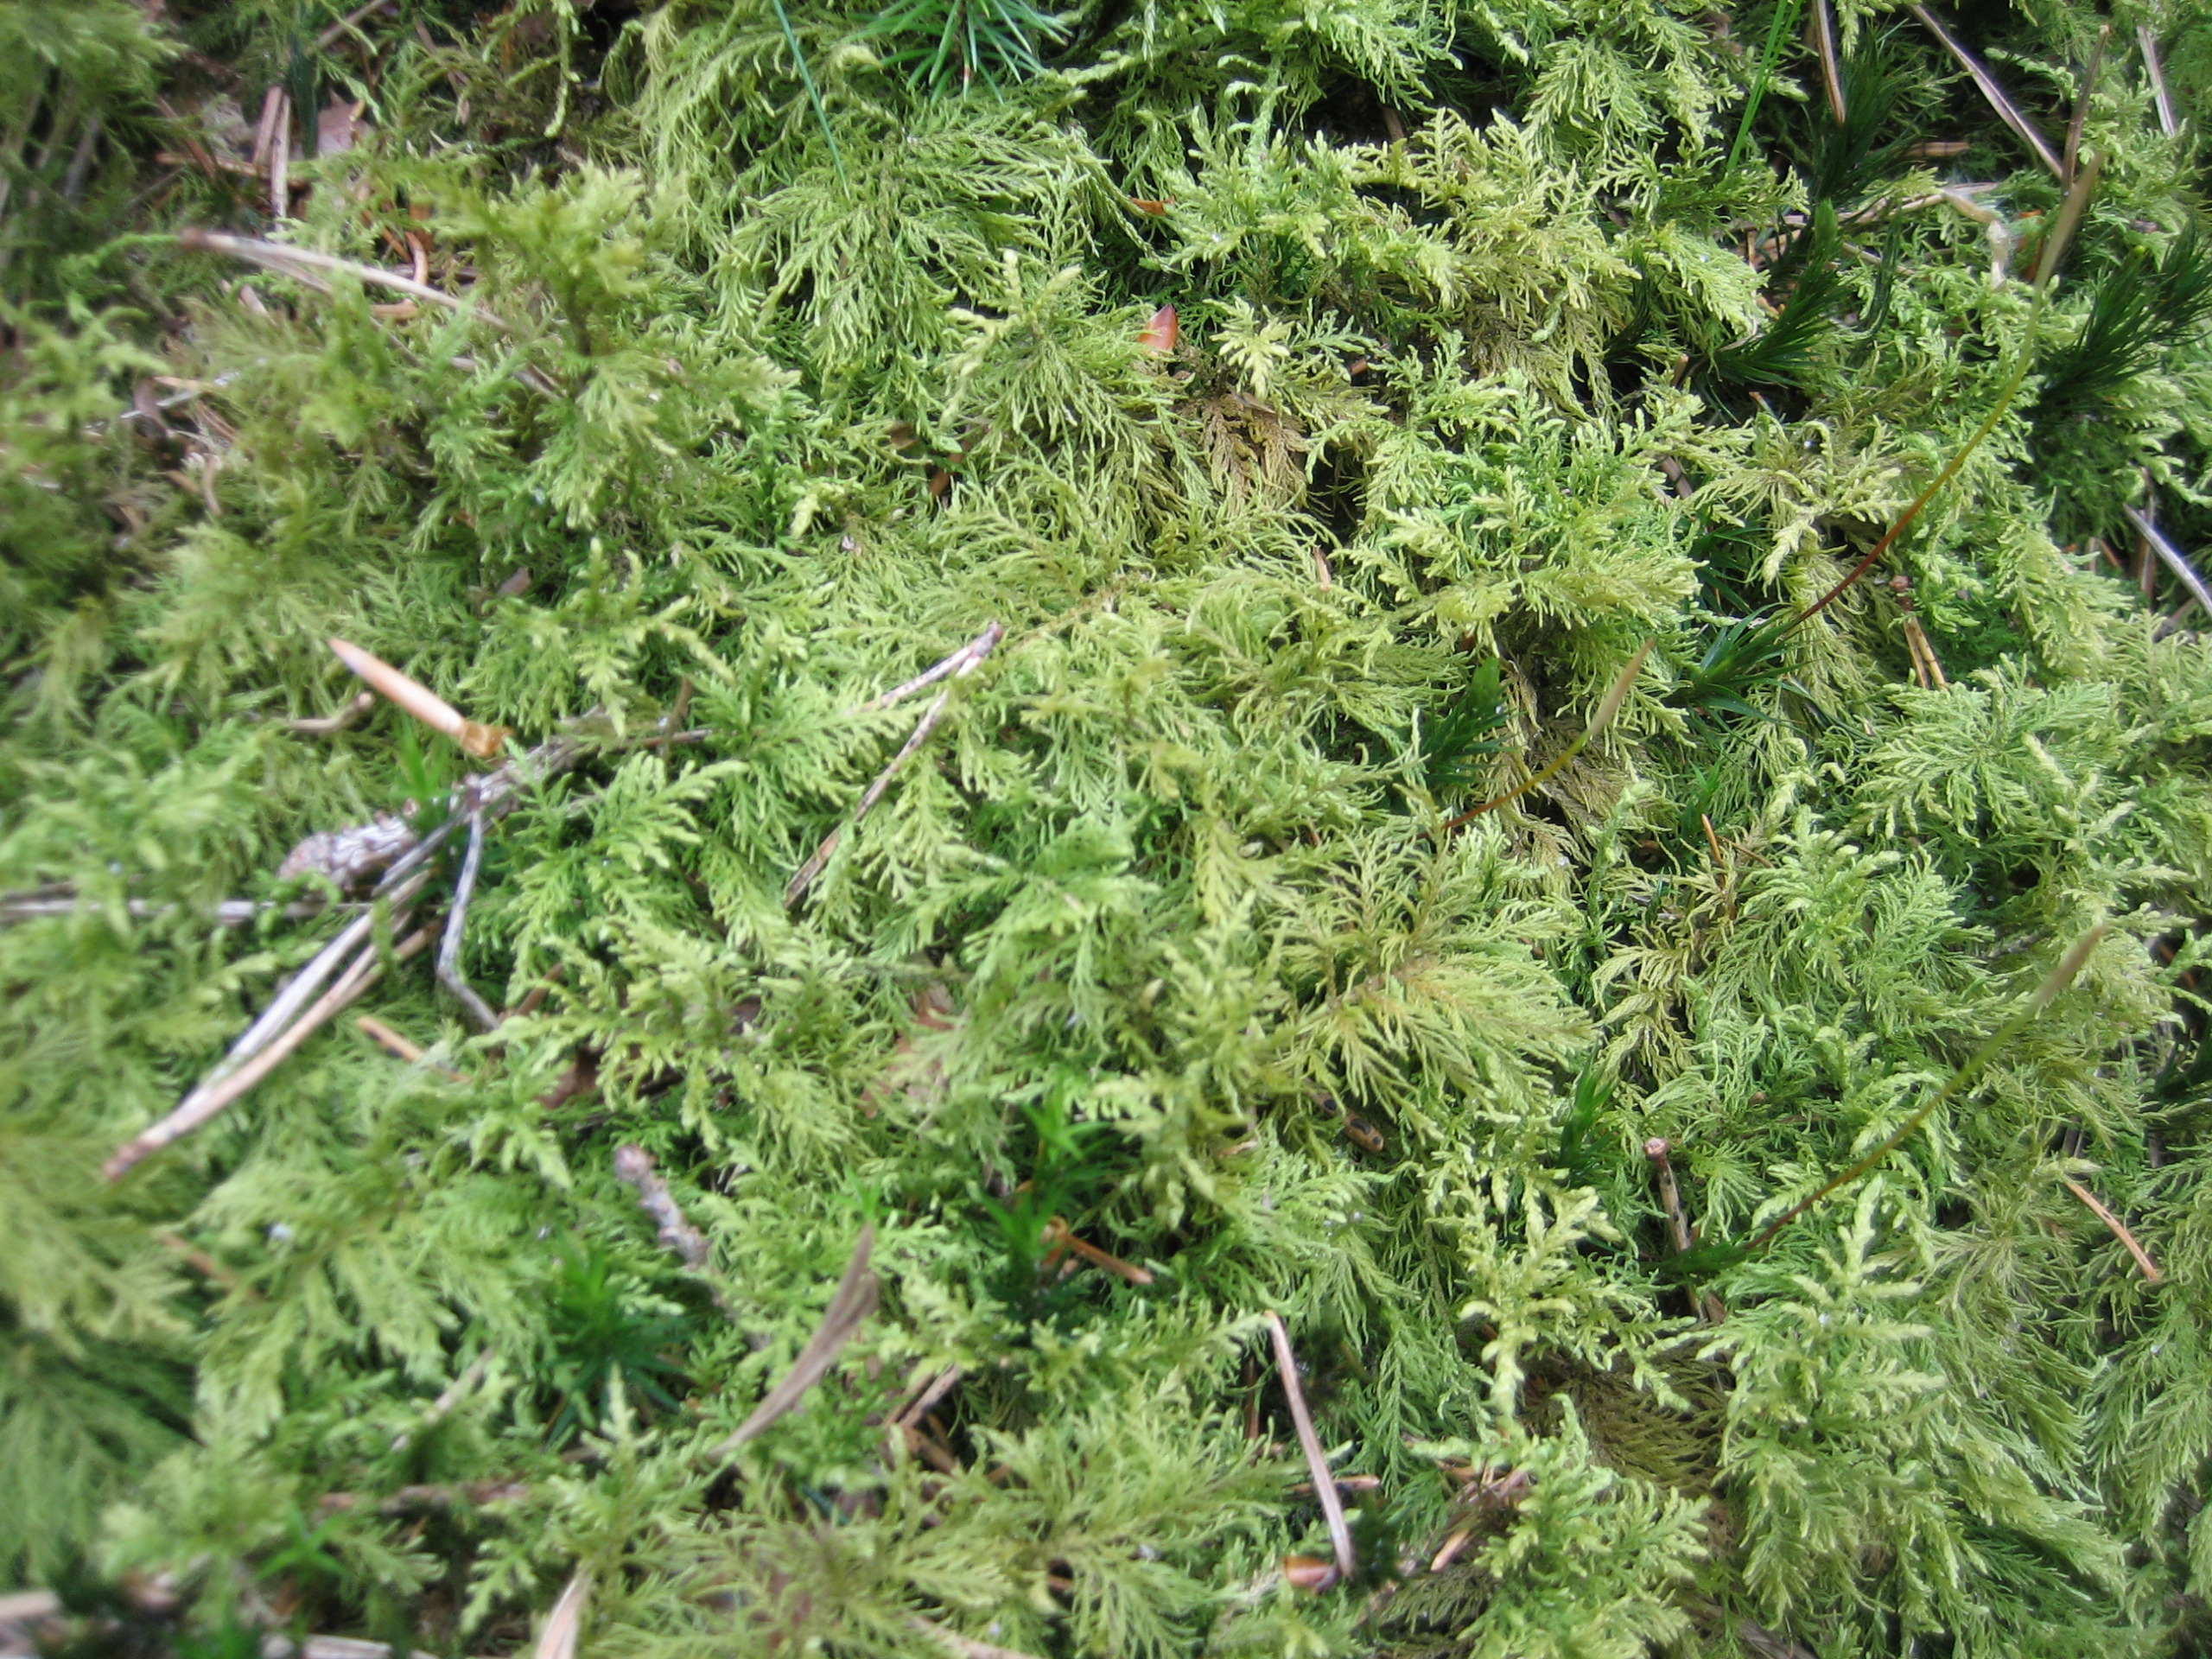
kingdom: Plantae
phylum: Bryophyta
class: Bryopsida
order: Hypnales
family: Thuidiaceae
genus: Thuidium
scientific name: Thuidium tamariscinum
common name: Pryd-bregnemos
